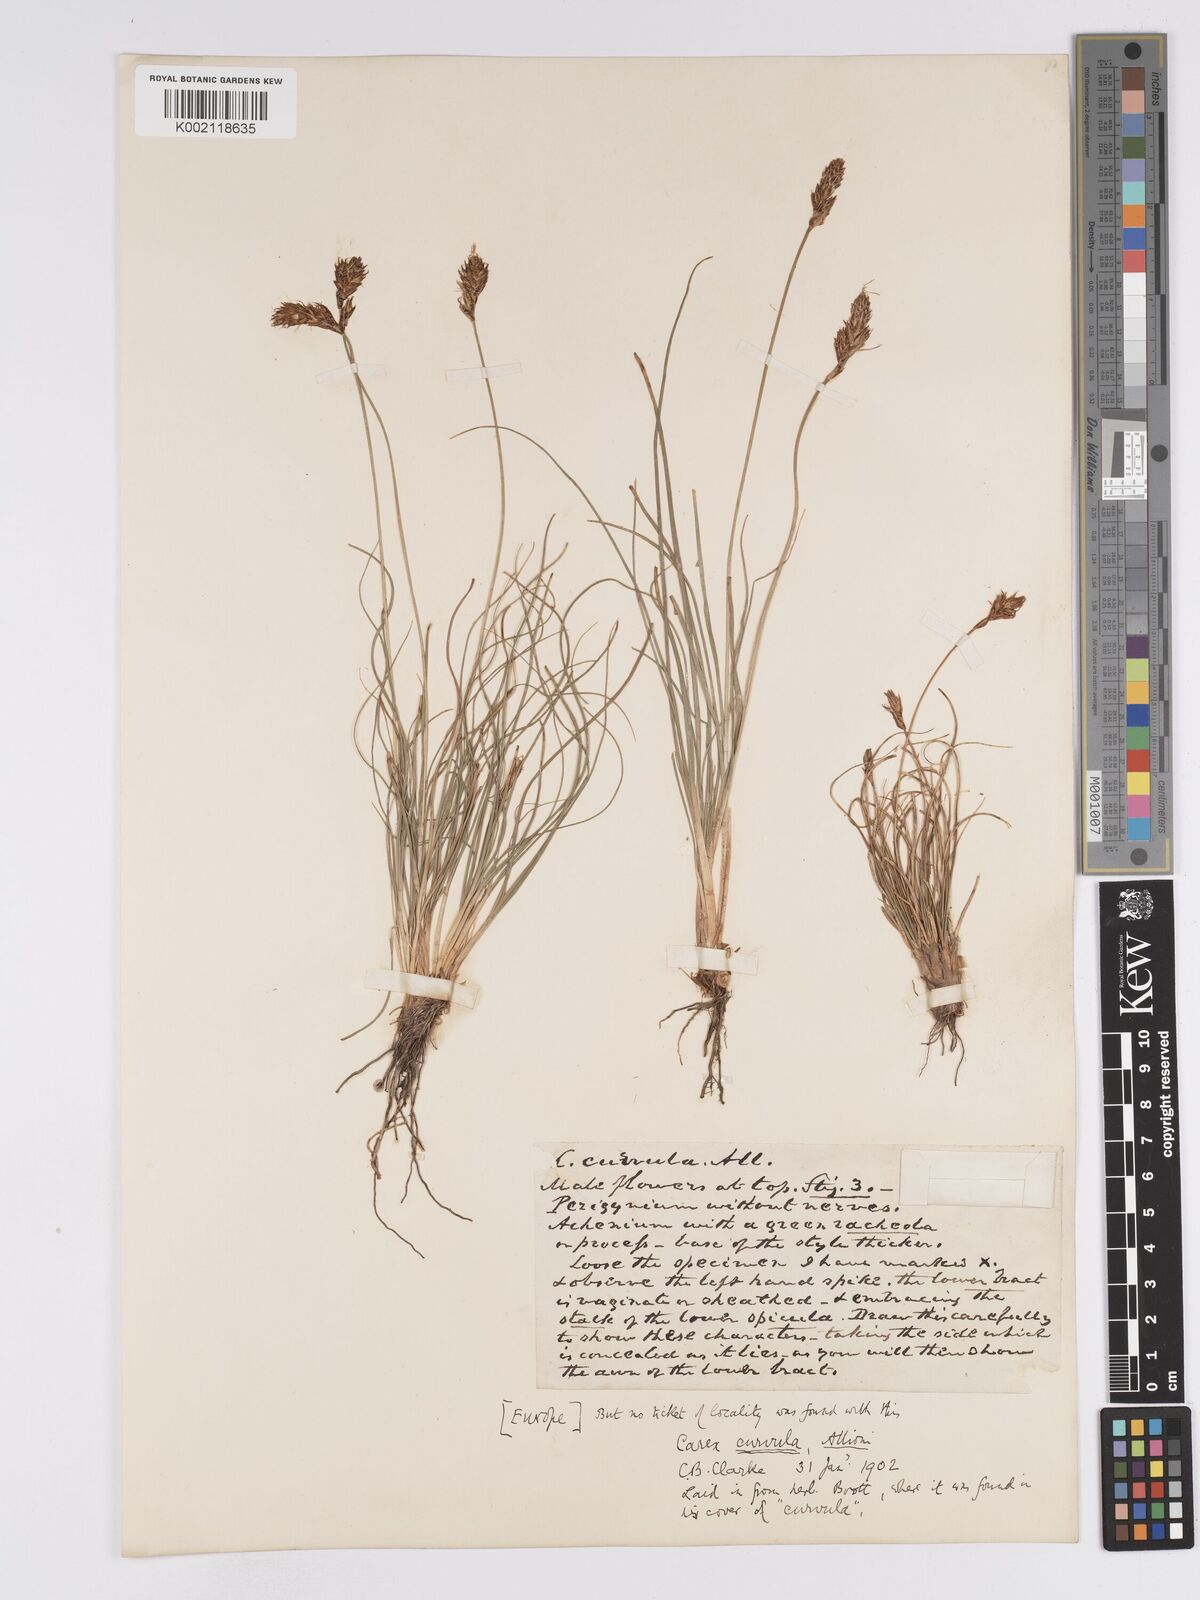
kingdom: Plantae
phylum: Tracheophyta
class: Liliopsida
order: Poales
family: Cyperaceae
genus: Carex
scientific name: Carex curvula
